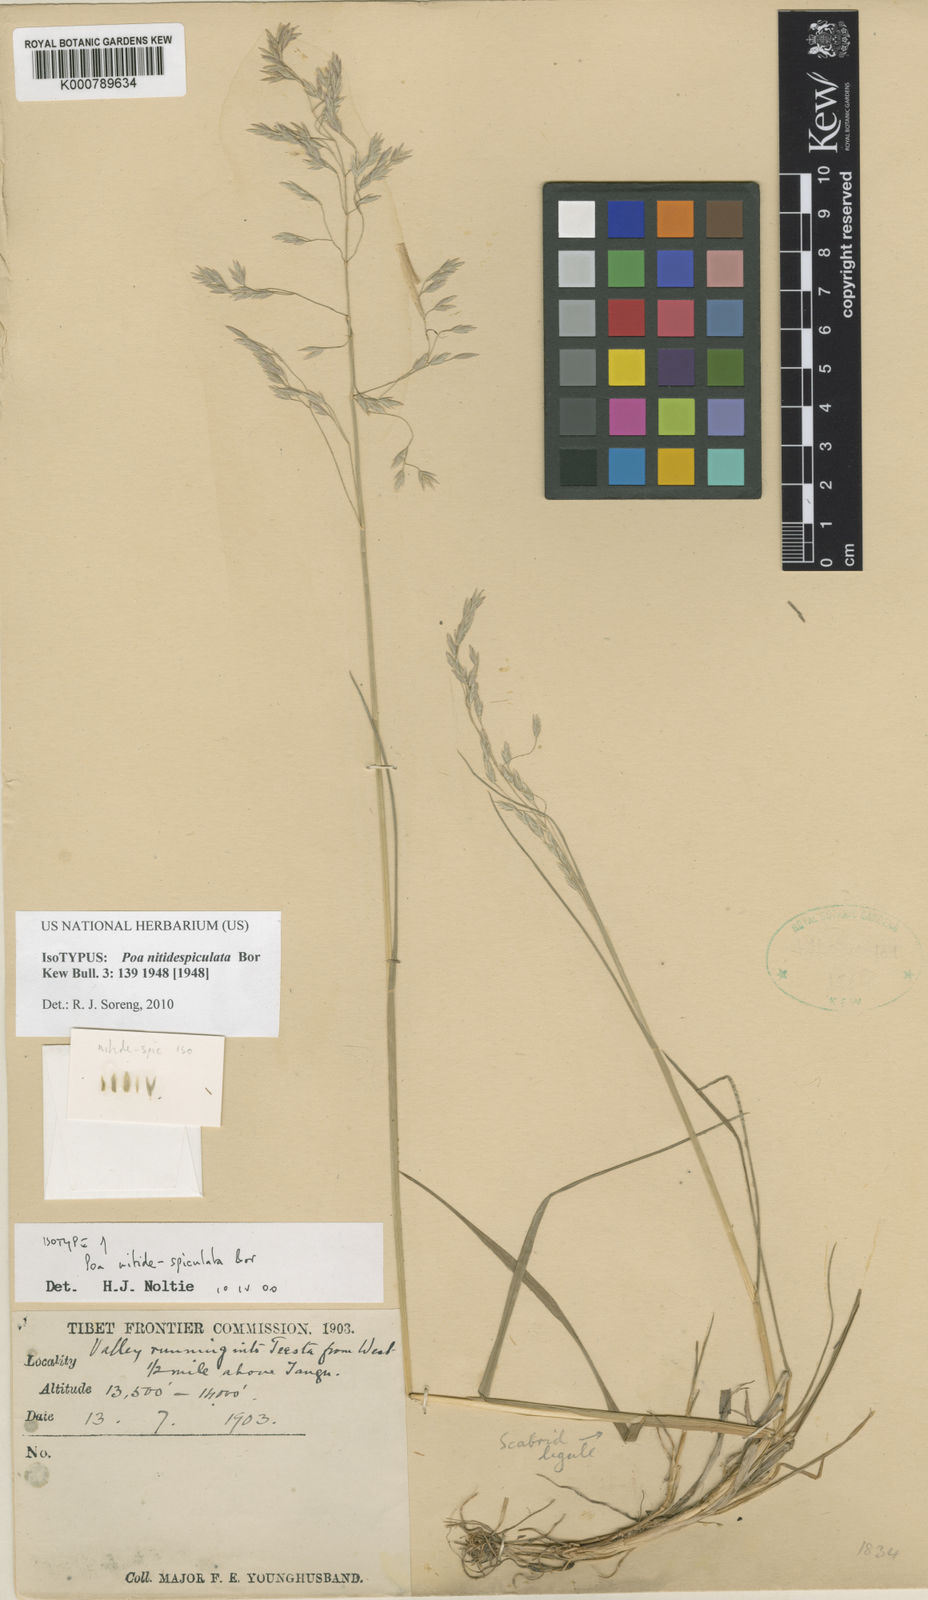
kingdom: Plantae
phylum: Tracheophyta
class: Liliopsida
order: Poales
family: Poaceae
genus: Poa
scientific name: Poa nitidespiculata
